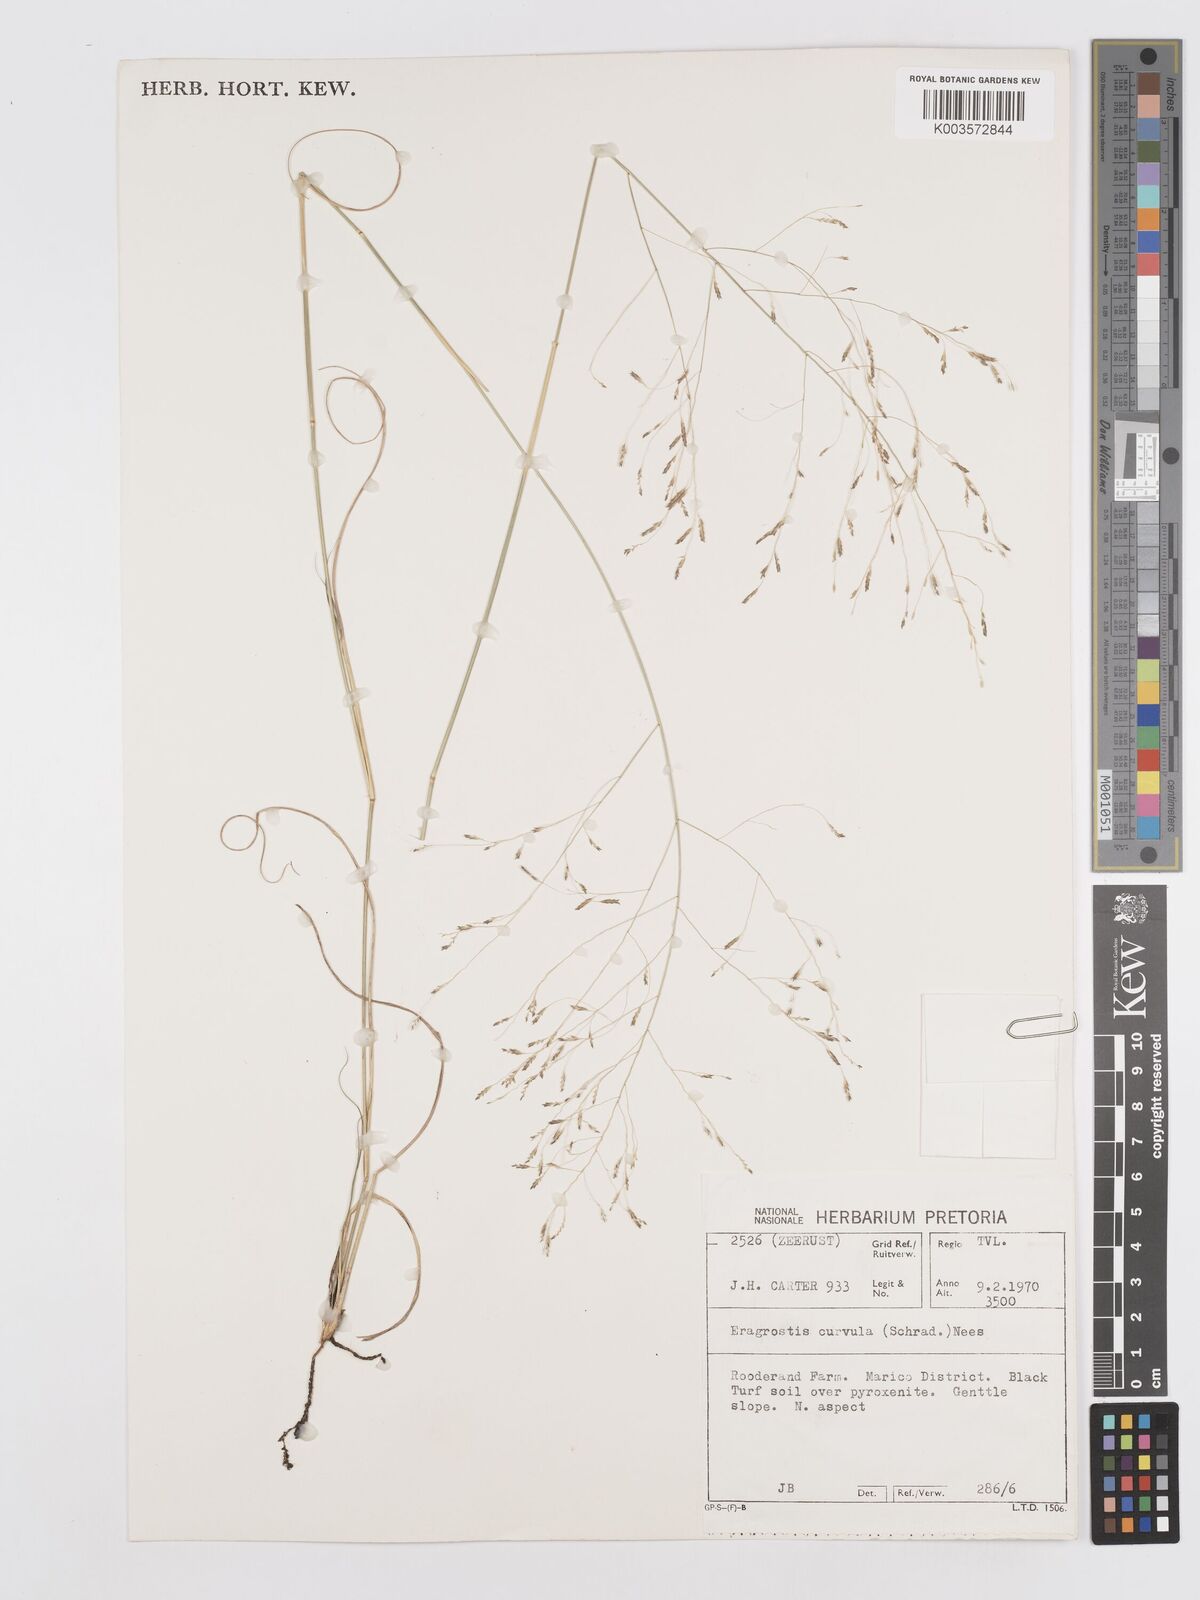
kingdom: Plantae
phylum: Tracheophyta
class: Liliopsida
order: Poales
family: Poaceae
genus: Eragrostis
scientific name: Eragrostis curvula
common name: African love-grass
